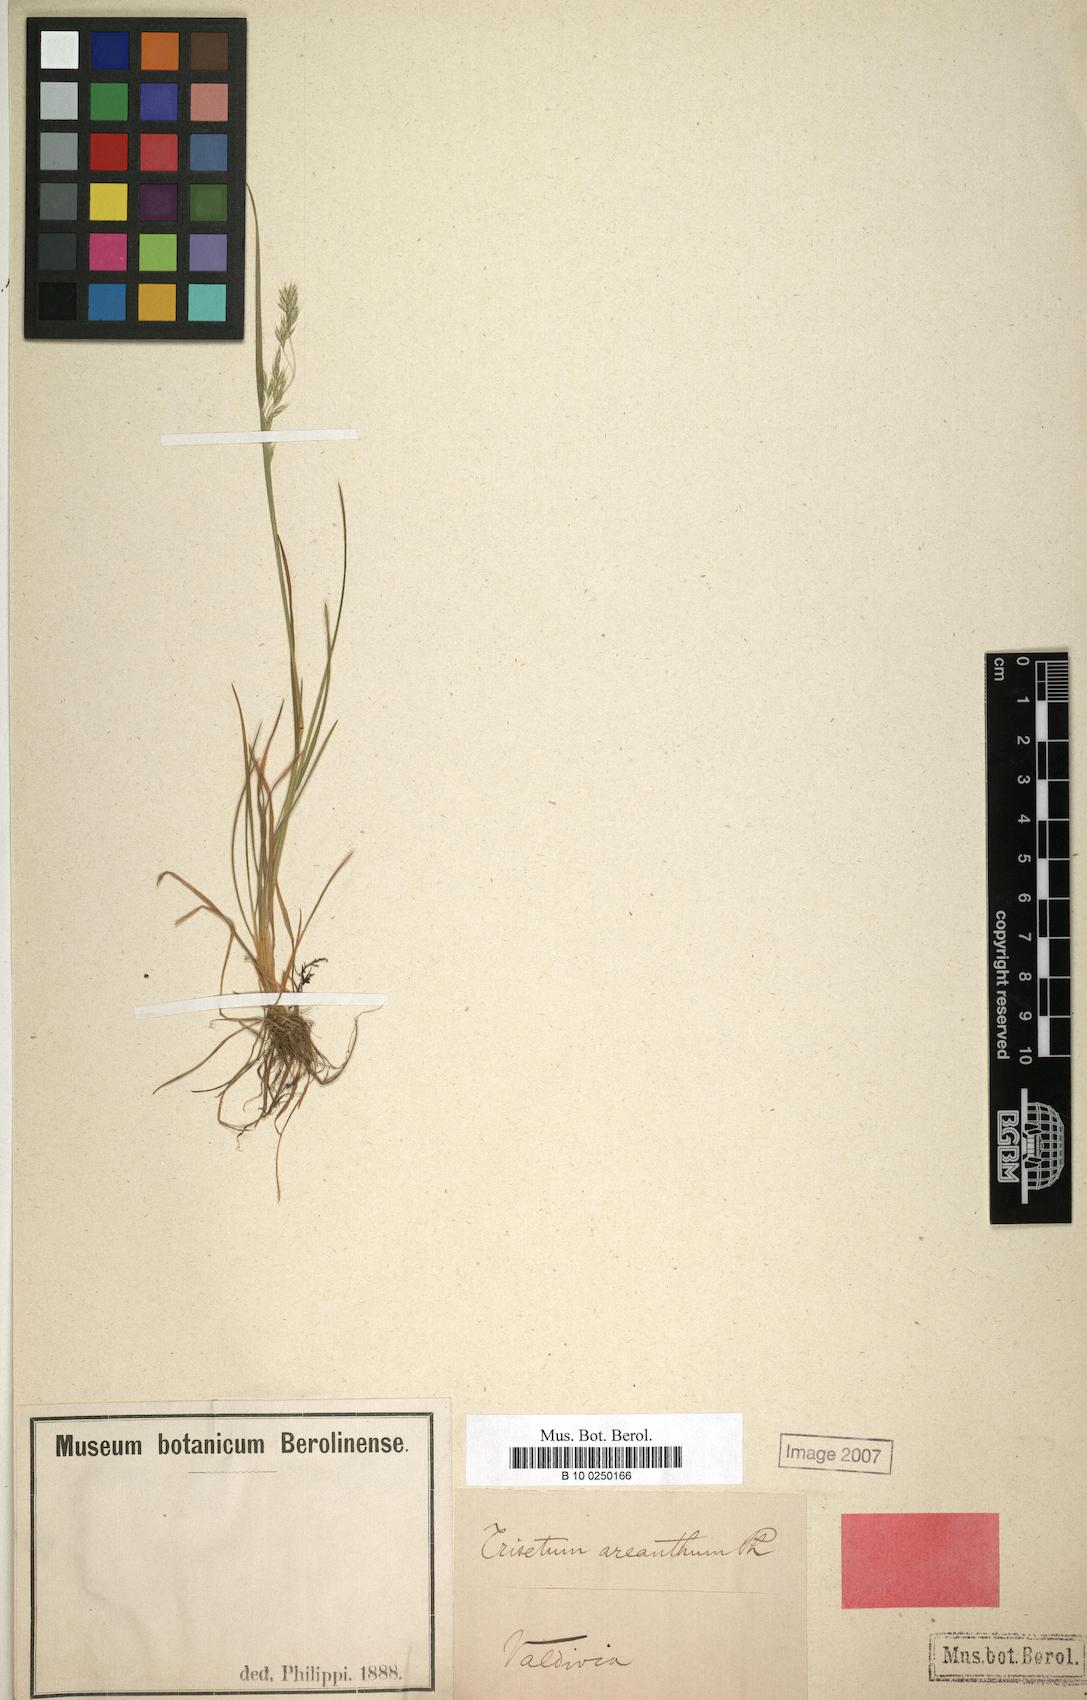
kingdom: Plantae
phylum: Tracheophyta
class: Liliopsida
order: Poales
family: Poaceae
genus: Cinnagrostis
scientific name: Cinnagrostis micrathera
